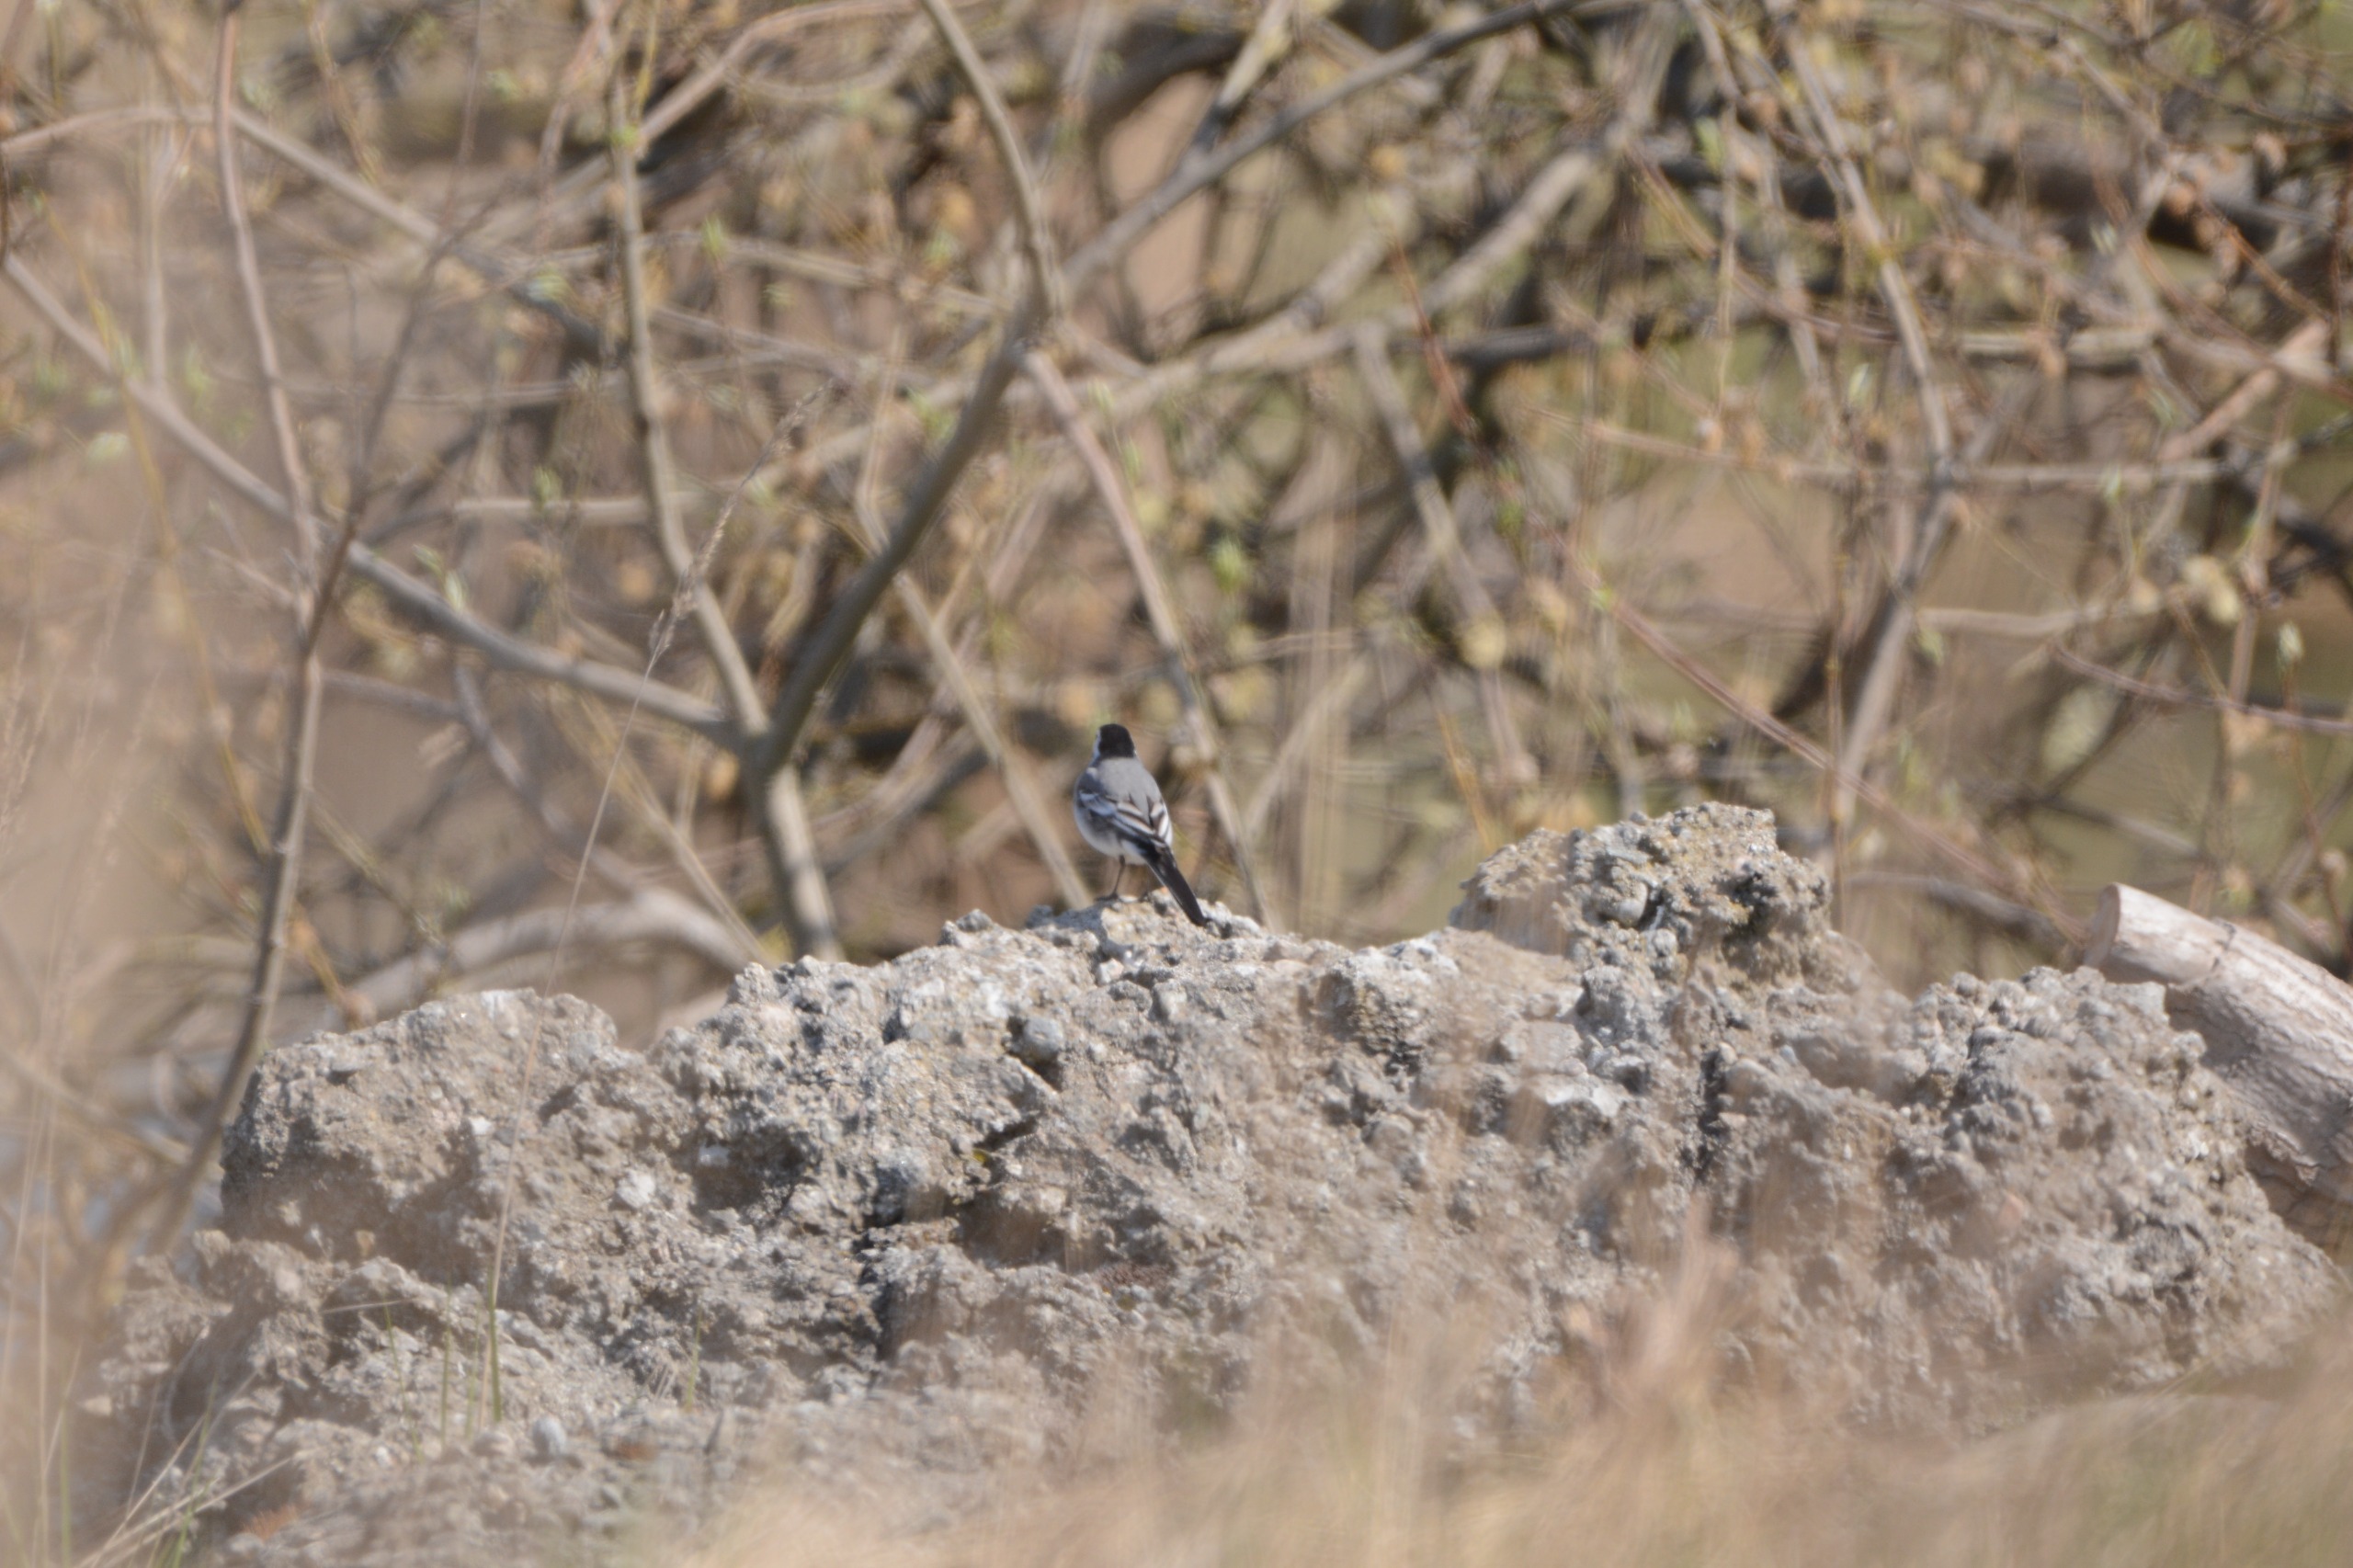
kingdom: Animalia
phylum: Chordata
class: Aves
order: Passeriformes
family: Motacillidae
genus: Motacilla
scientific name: Motacilla alba
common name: Hvid vipstjert
